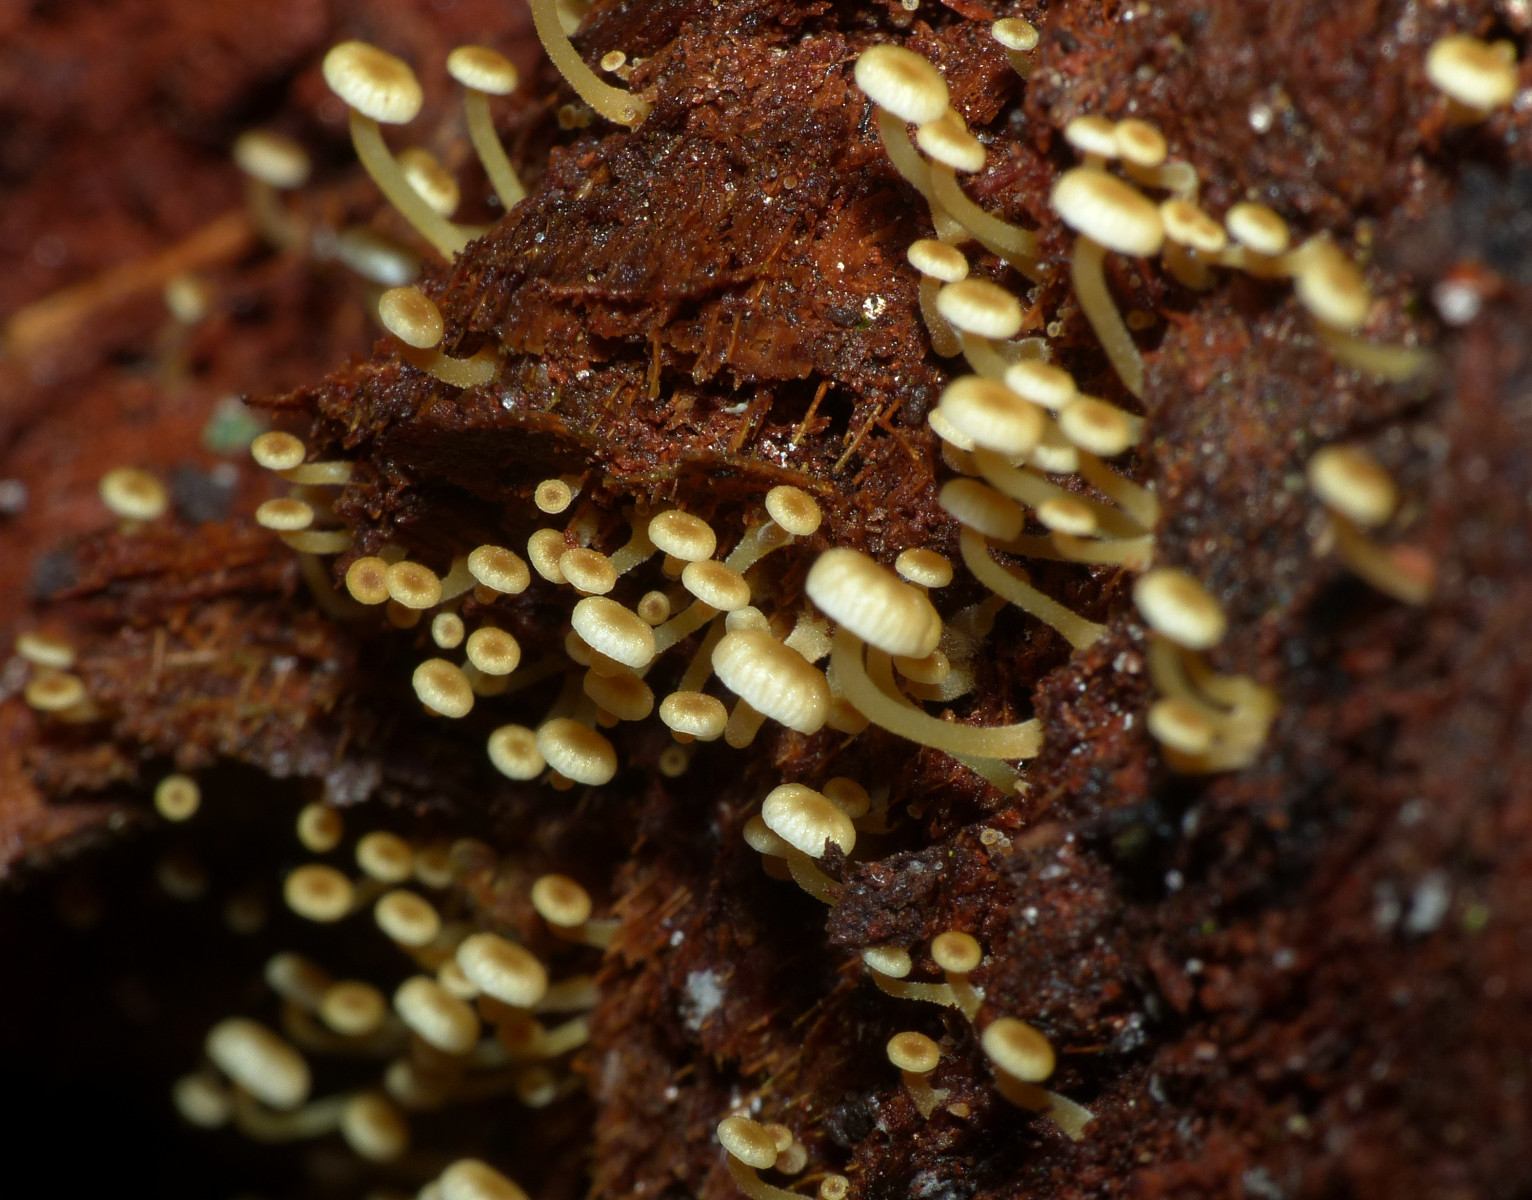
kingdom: Fungi
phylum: Basidiomycota
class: Agaricomycetes
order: Agaricales
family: Mycenaceae
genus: Xeromphalina
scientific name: Xeromphalina campanella
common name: klokke-tørhat
